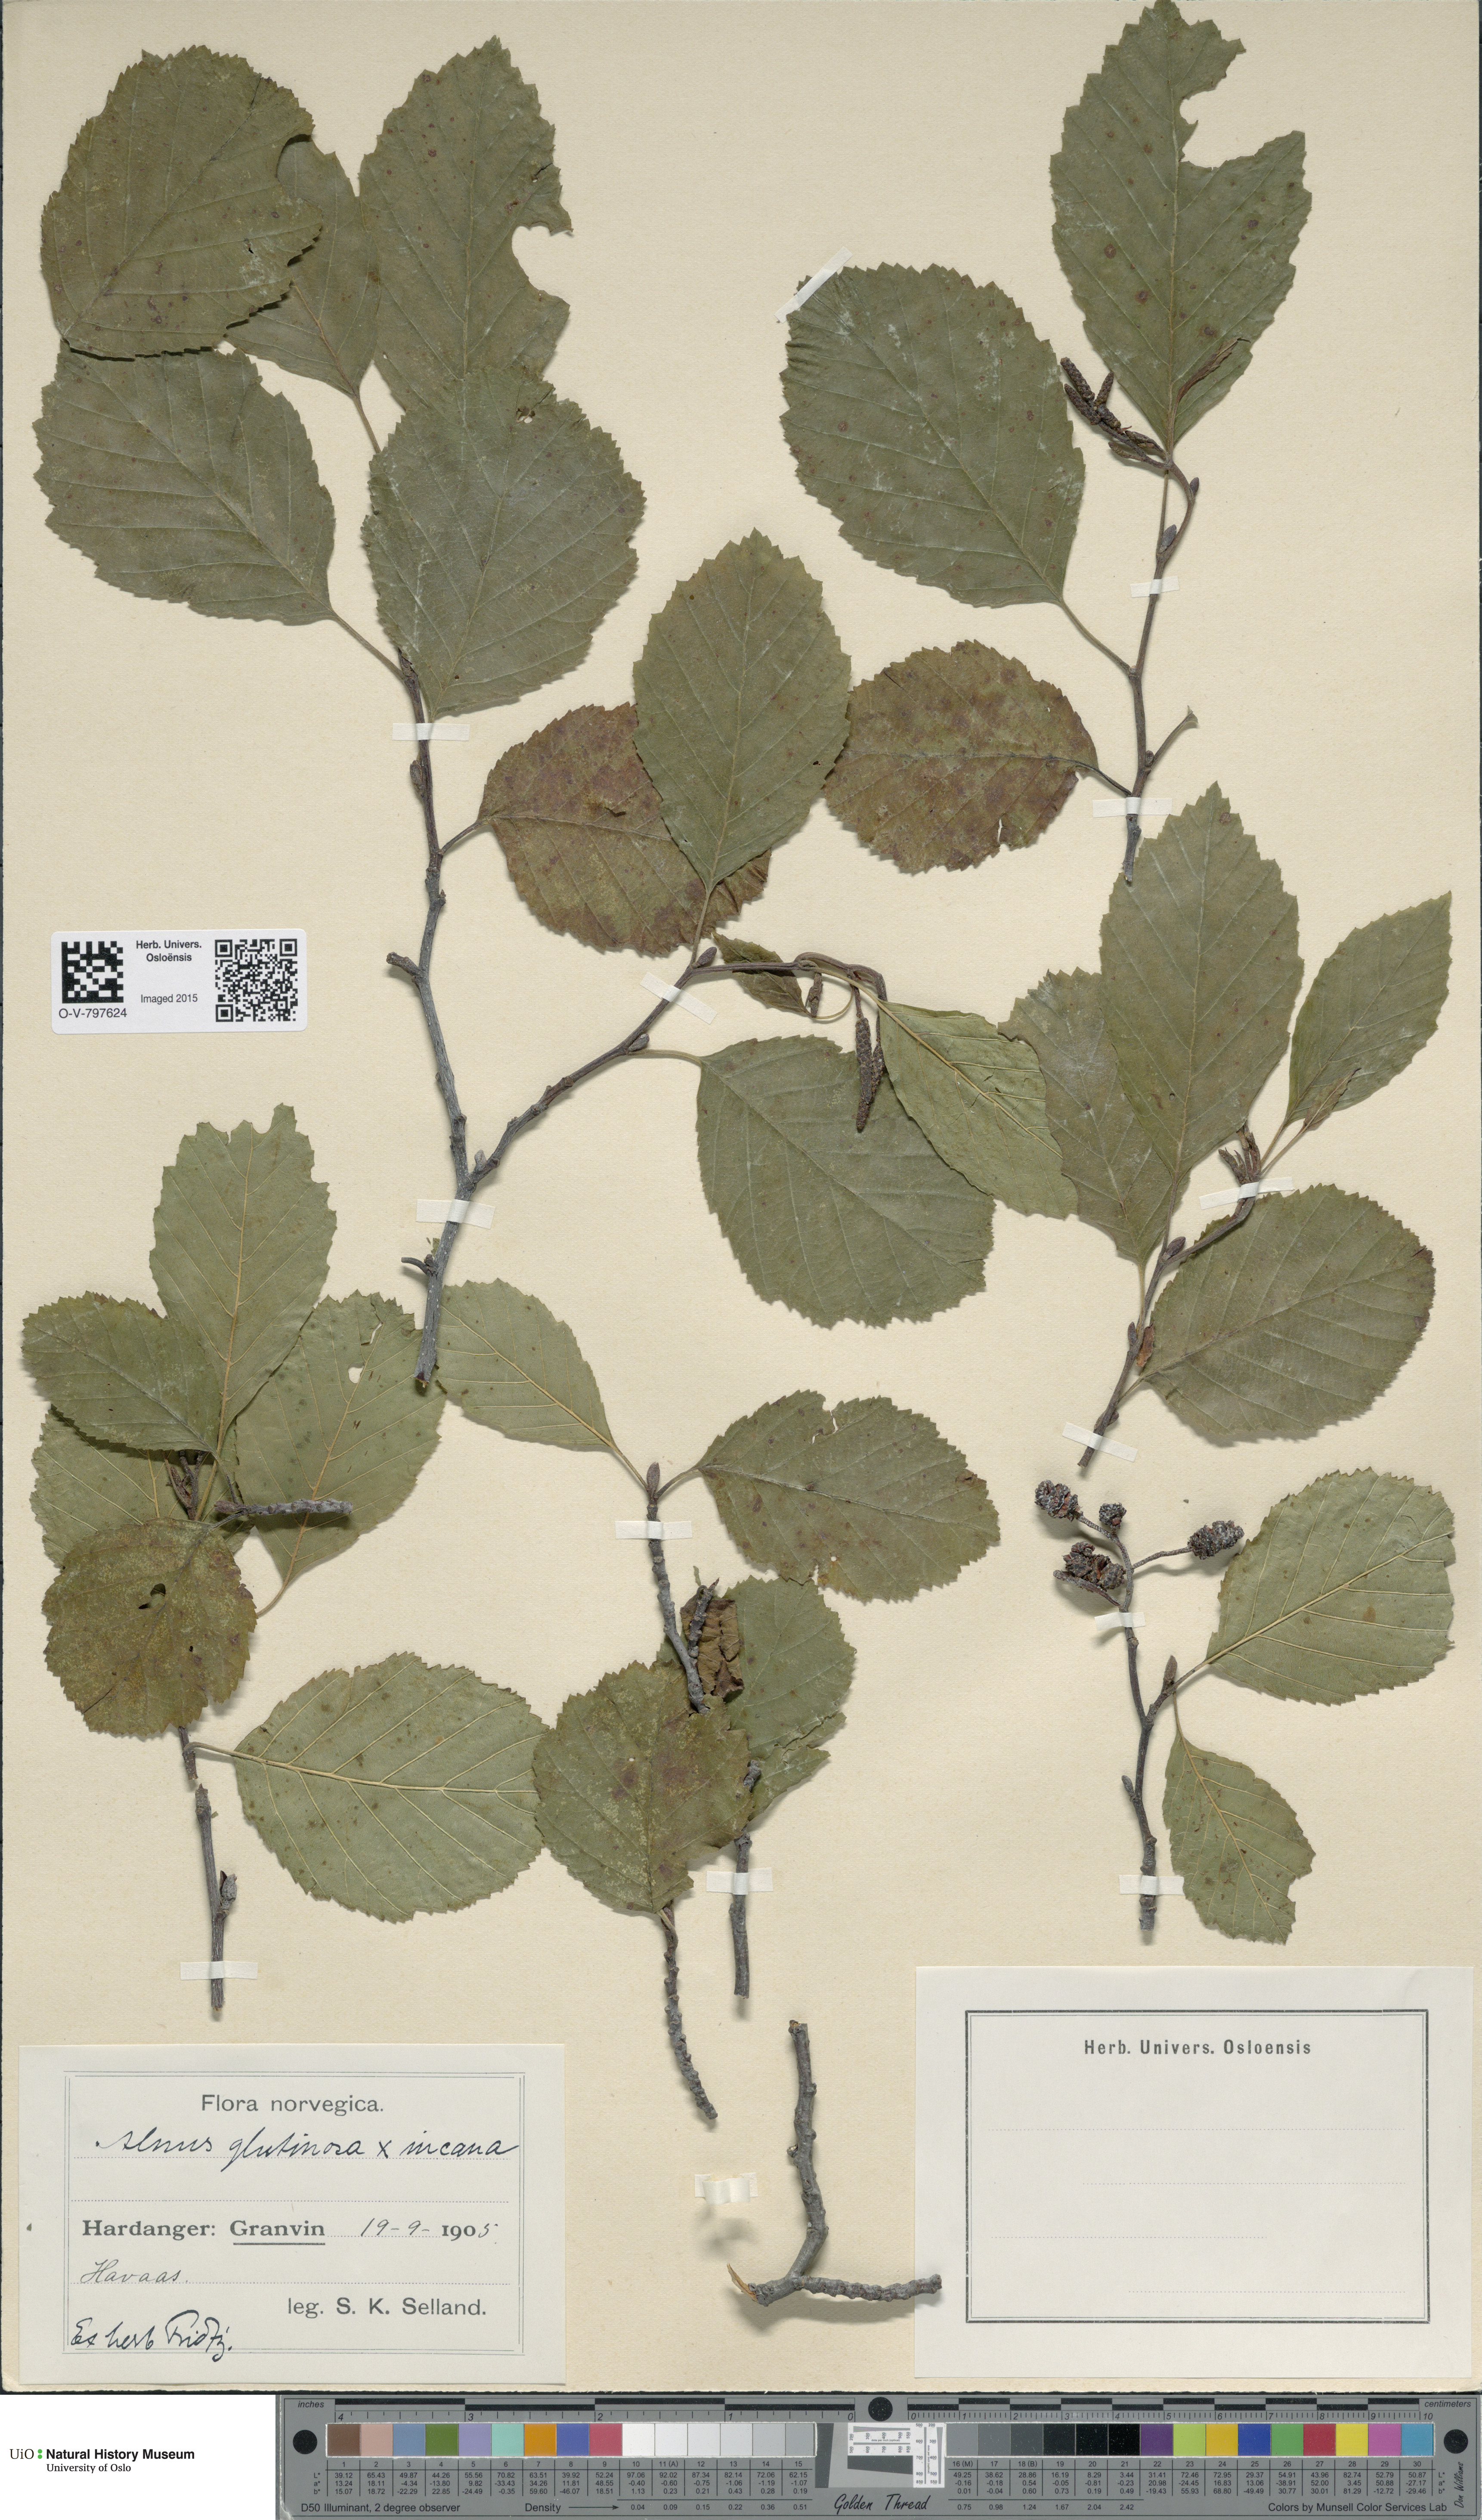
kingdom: Plantae
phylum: Tracheophyta
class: Magnoliopsida
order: Fagales
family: Betulaceae
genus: Alnus
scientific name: Alnus
